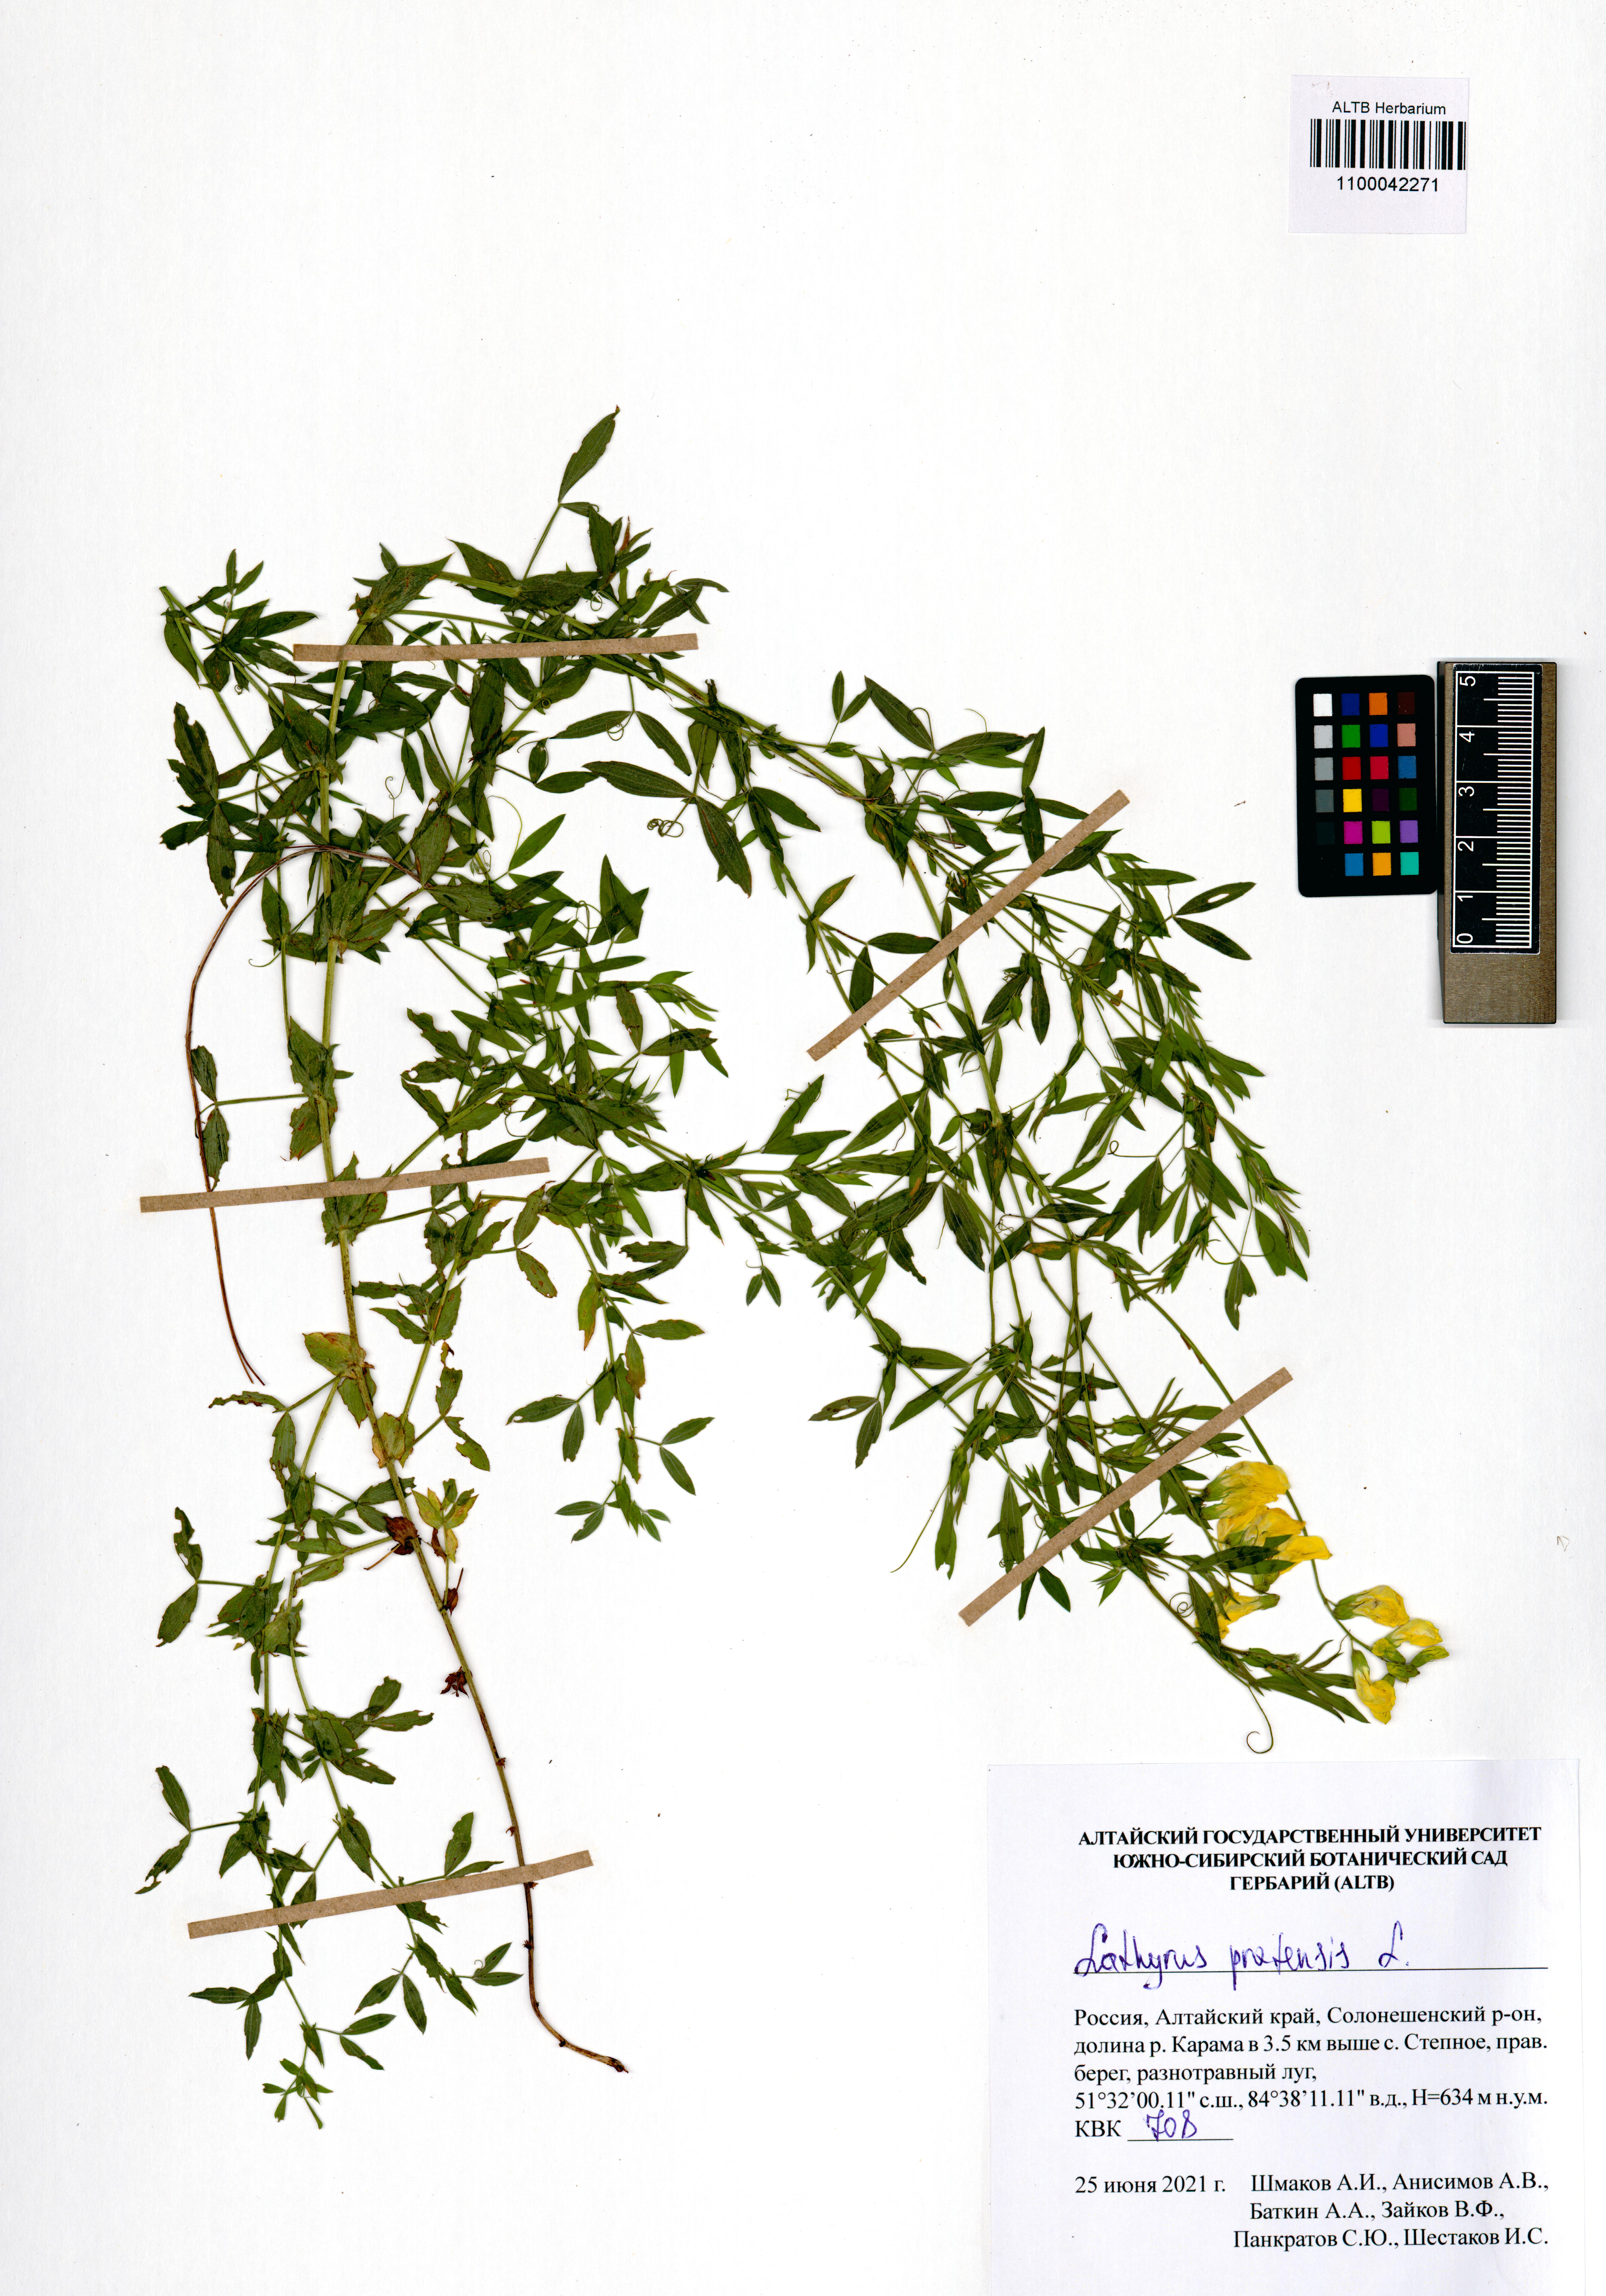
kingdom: Plantae
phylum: Tracheophyta
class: Magnoliopsida
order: Fabales
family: Fabaceae
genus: Lathyrus
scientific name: Lathyrus pratensis
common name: Meadow vetchling
